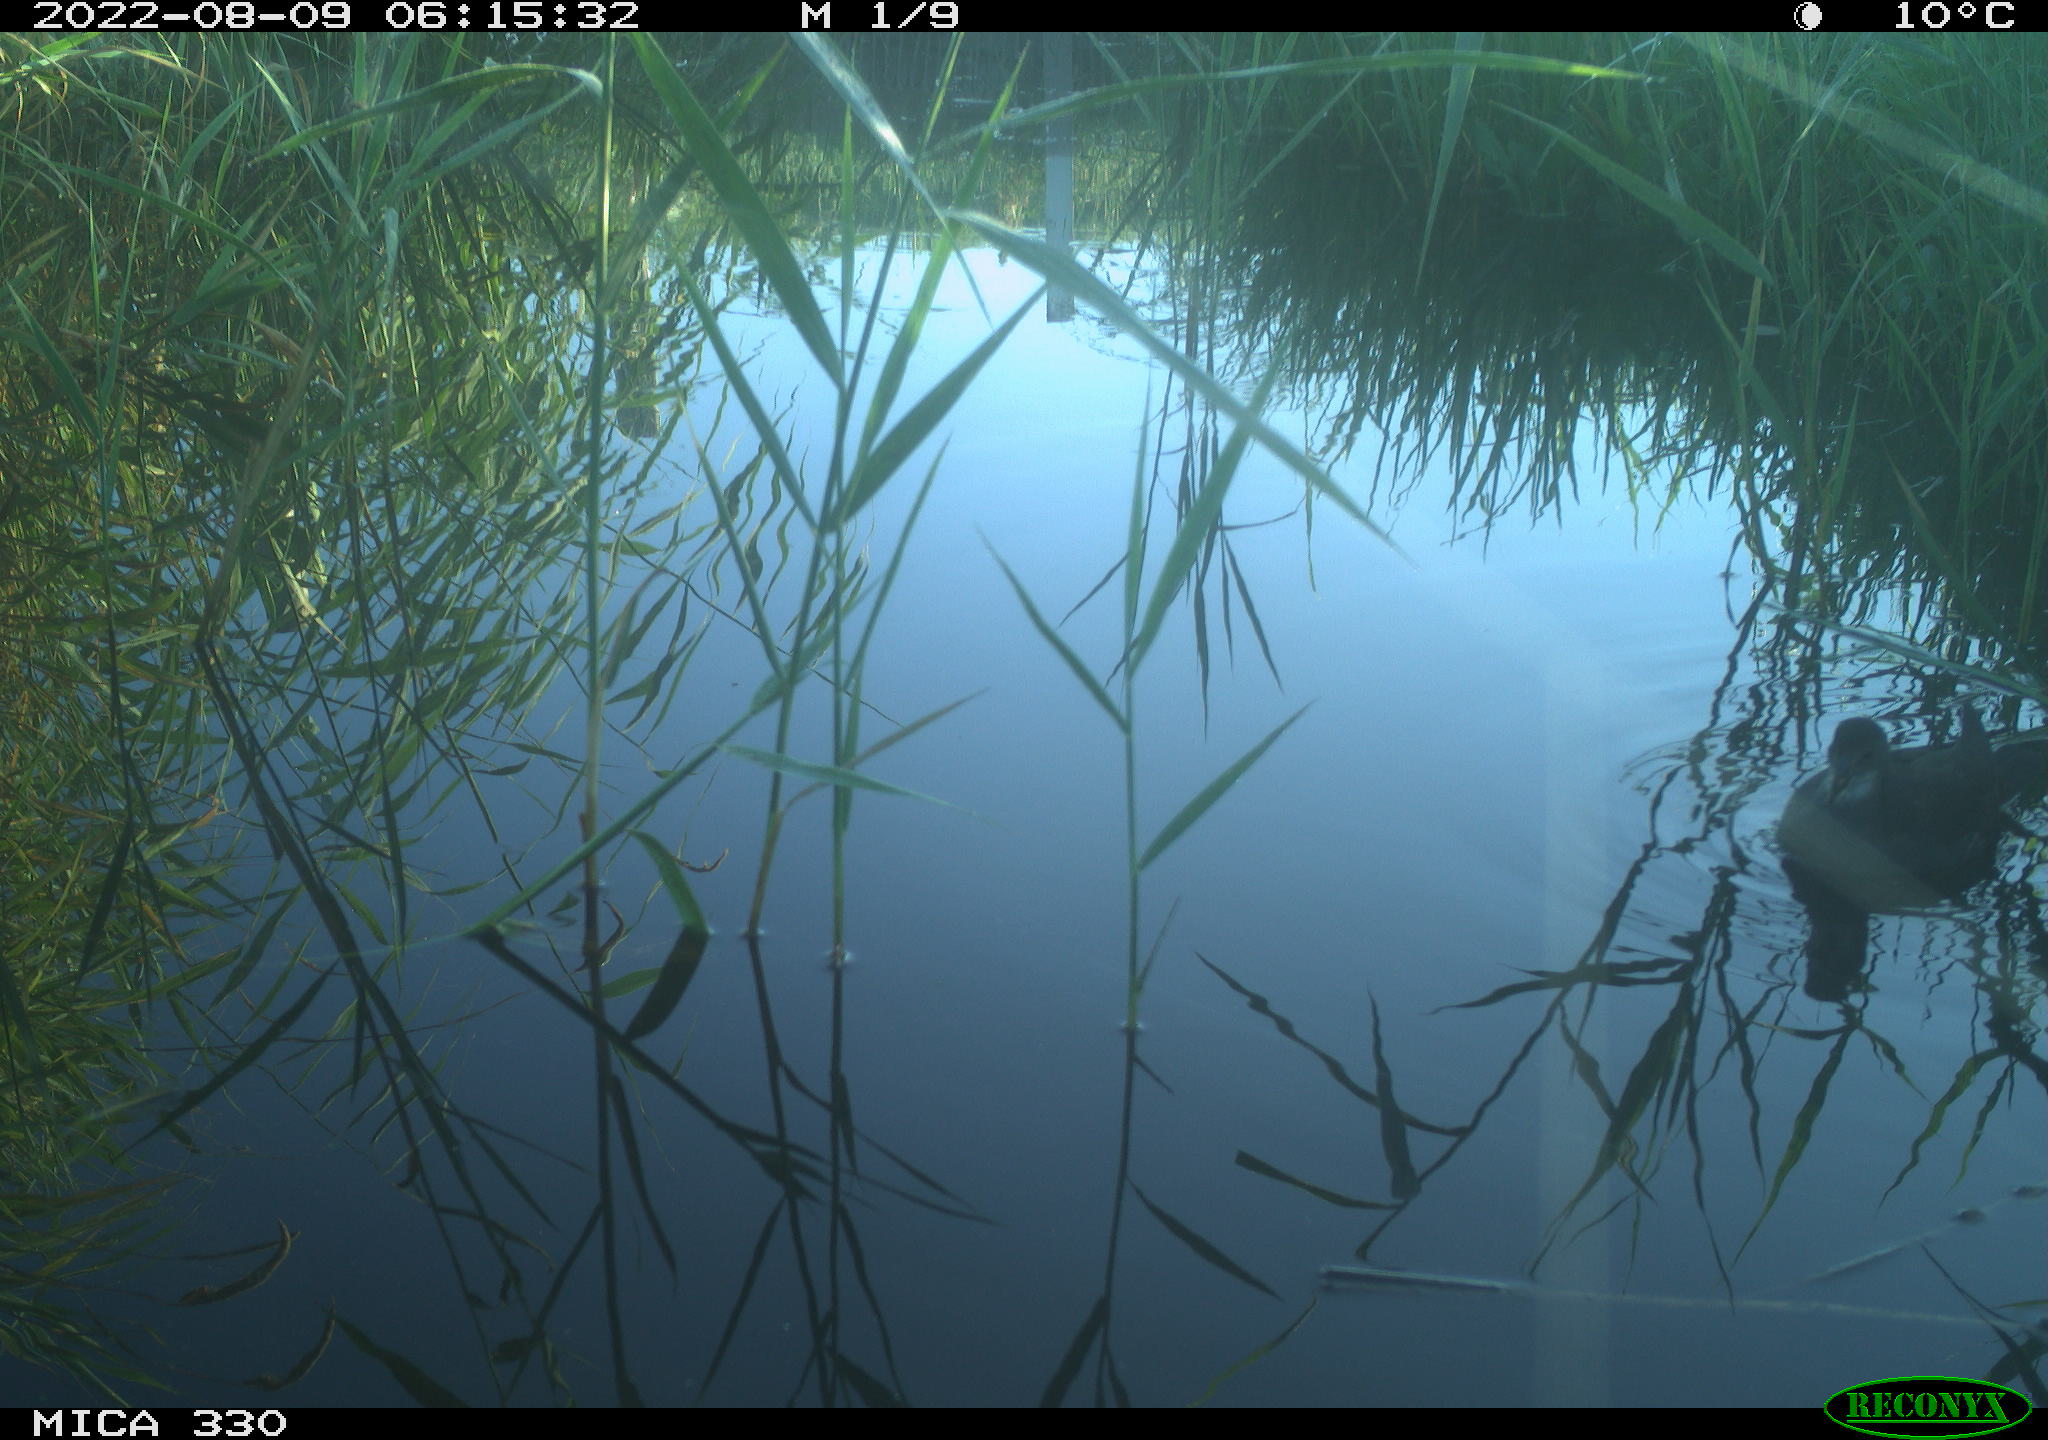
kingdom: Animalia
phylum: Chordata
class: Aves
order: Gruiformes
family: Rallidae
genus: Gallinula
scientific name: Gallinula chloropus
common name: Common moorhen
